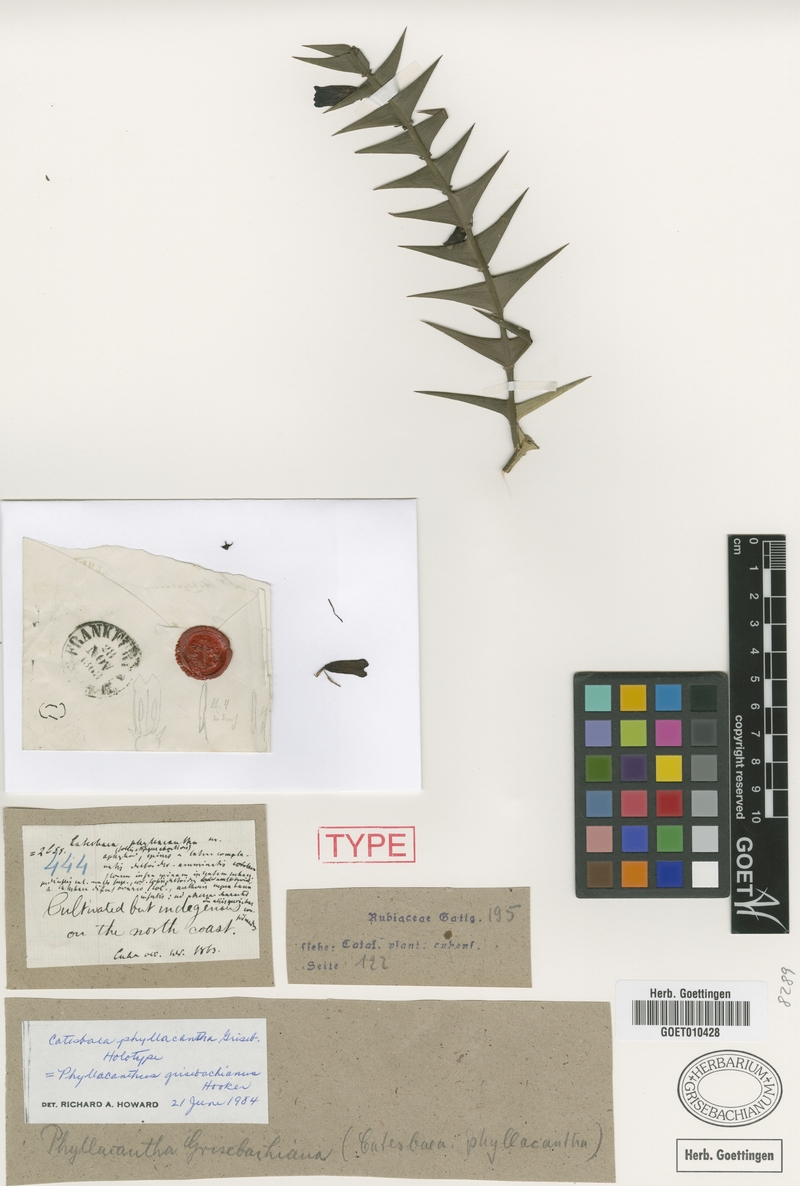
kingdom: Plantae
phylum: Tracheophyta
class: Magnoliopsida
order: Gentianales
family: Rubiaceae
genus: Catesbaea
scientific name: Catesbaea phyllacantha
